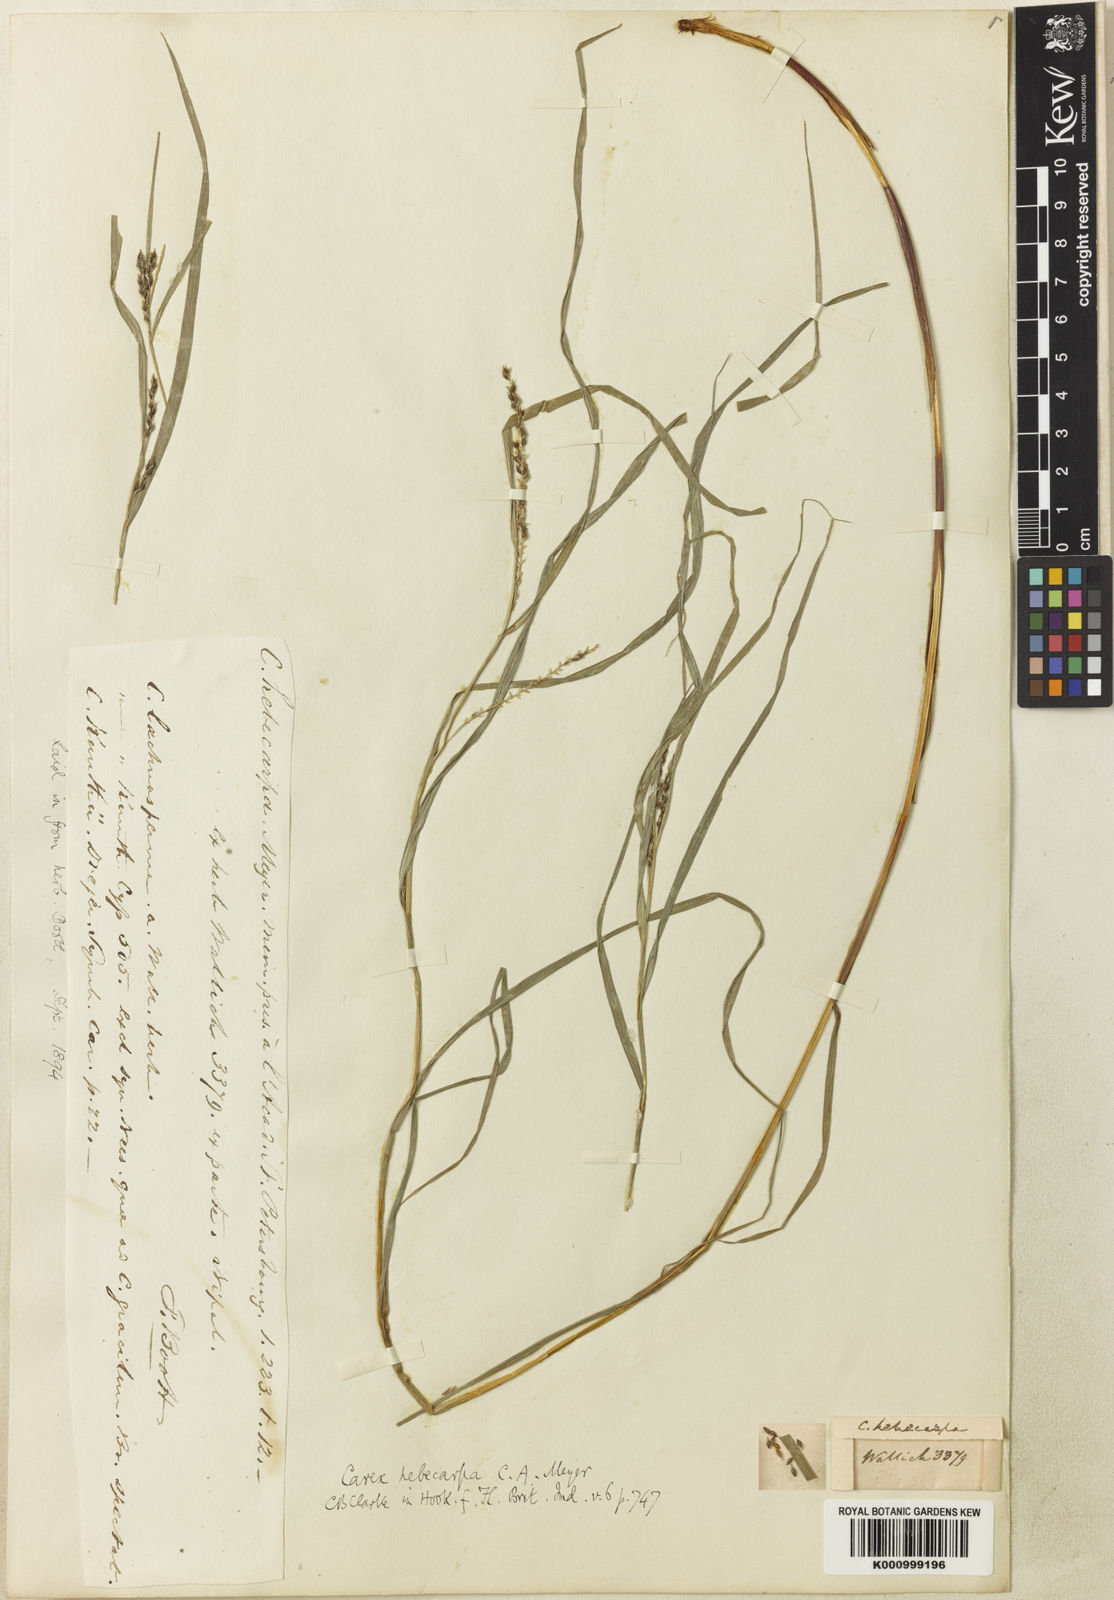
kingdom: Plantae
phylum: Tracheophyta
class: Liliopsida
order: Poales
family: Cyperaceae
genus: Carex
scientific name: Carex hebecarpa
